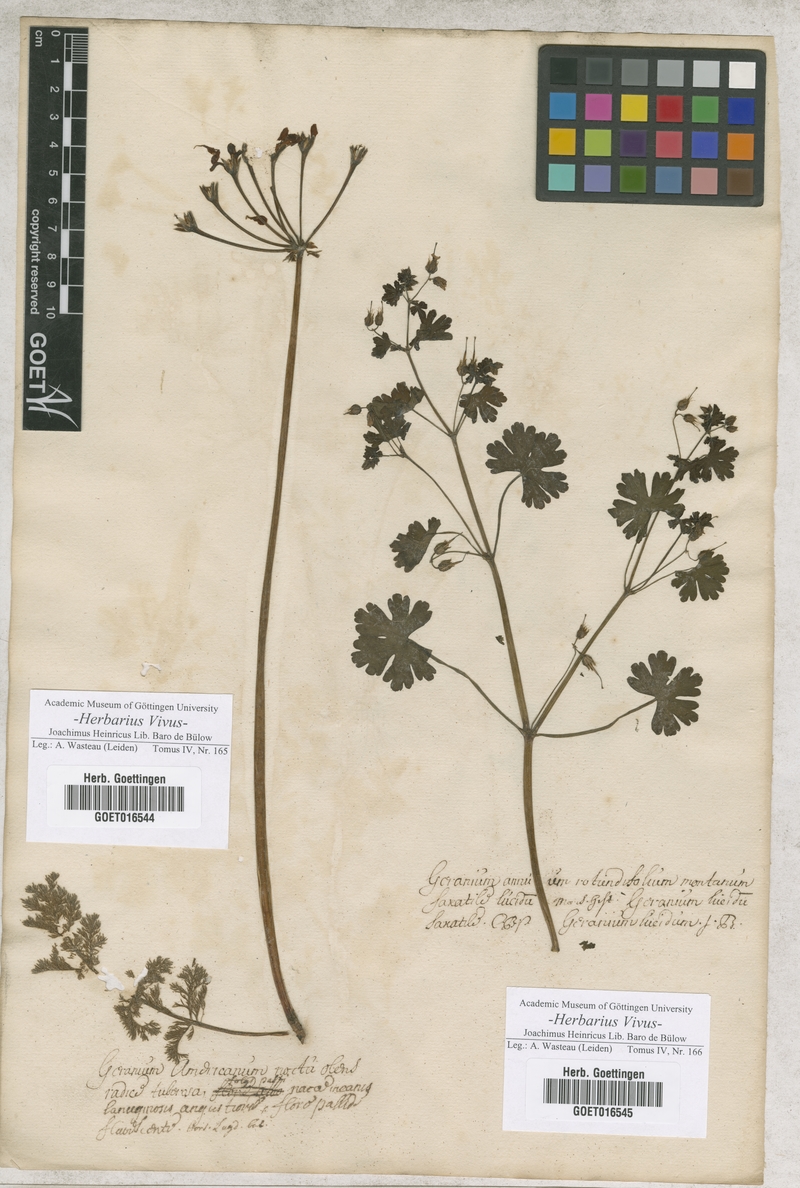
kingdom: Plantae
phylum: Tracheophyta
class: Magnoliopsida
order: Geraniales
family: Geraniaceae
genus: Geranium
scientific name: Geranium
